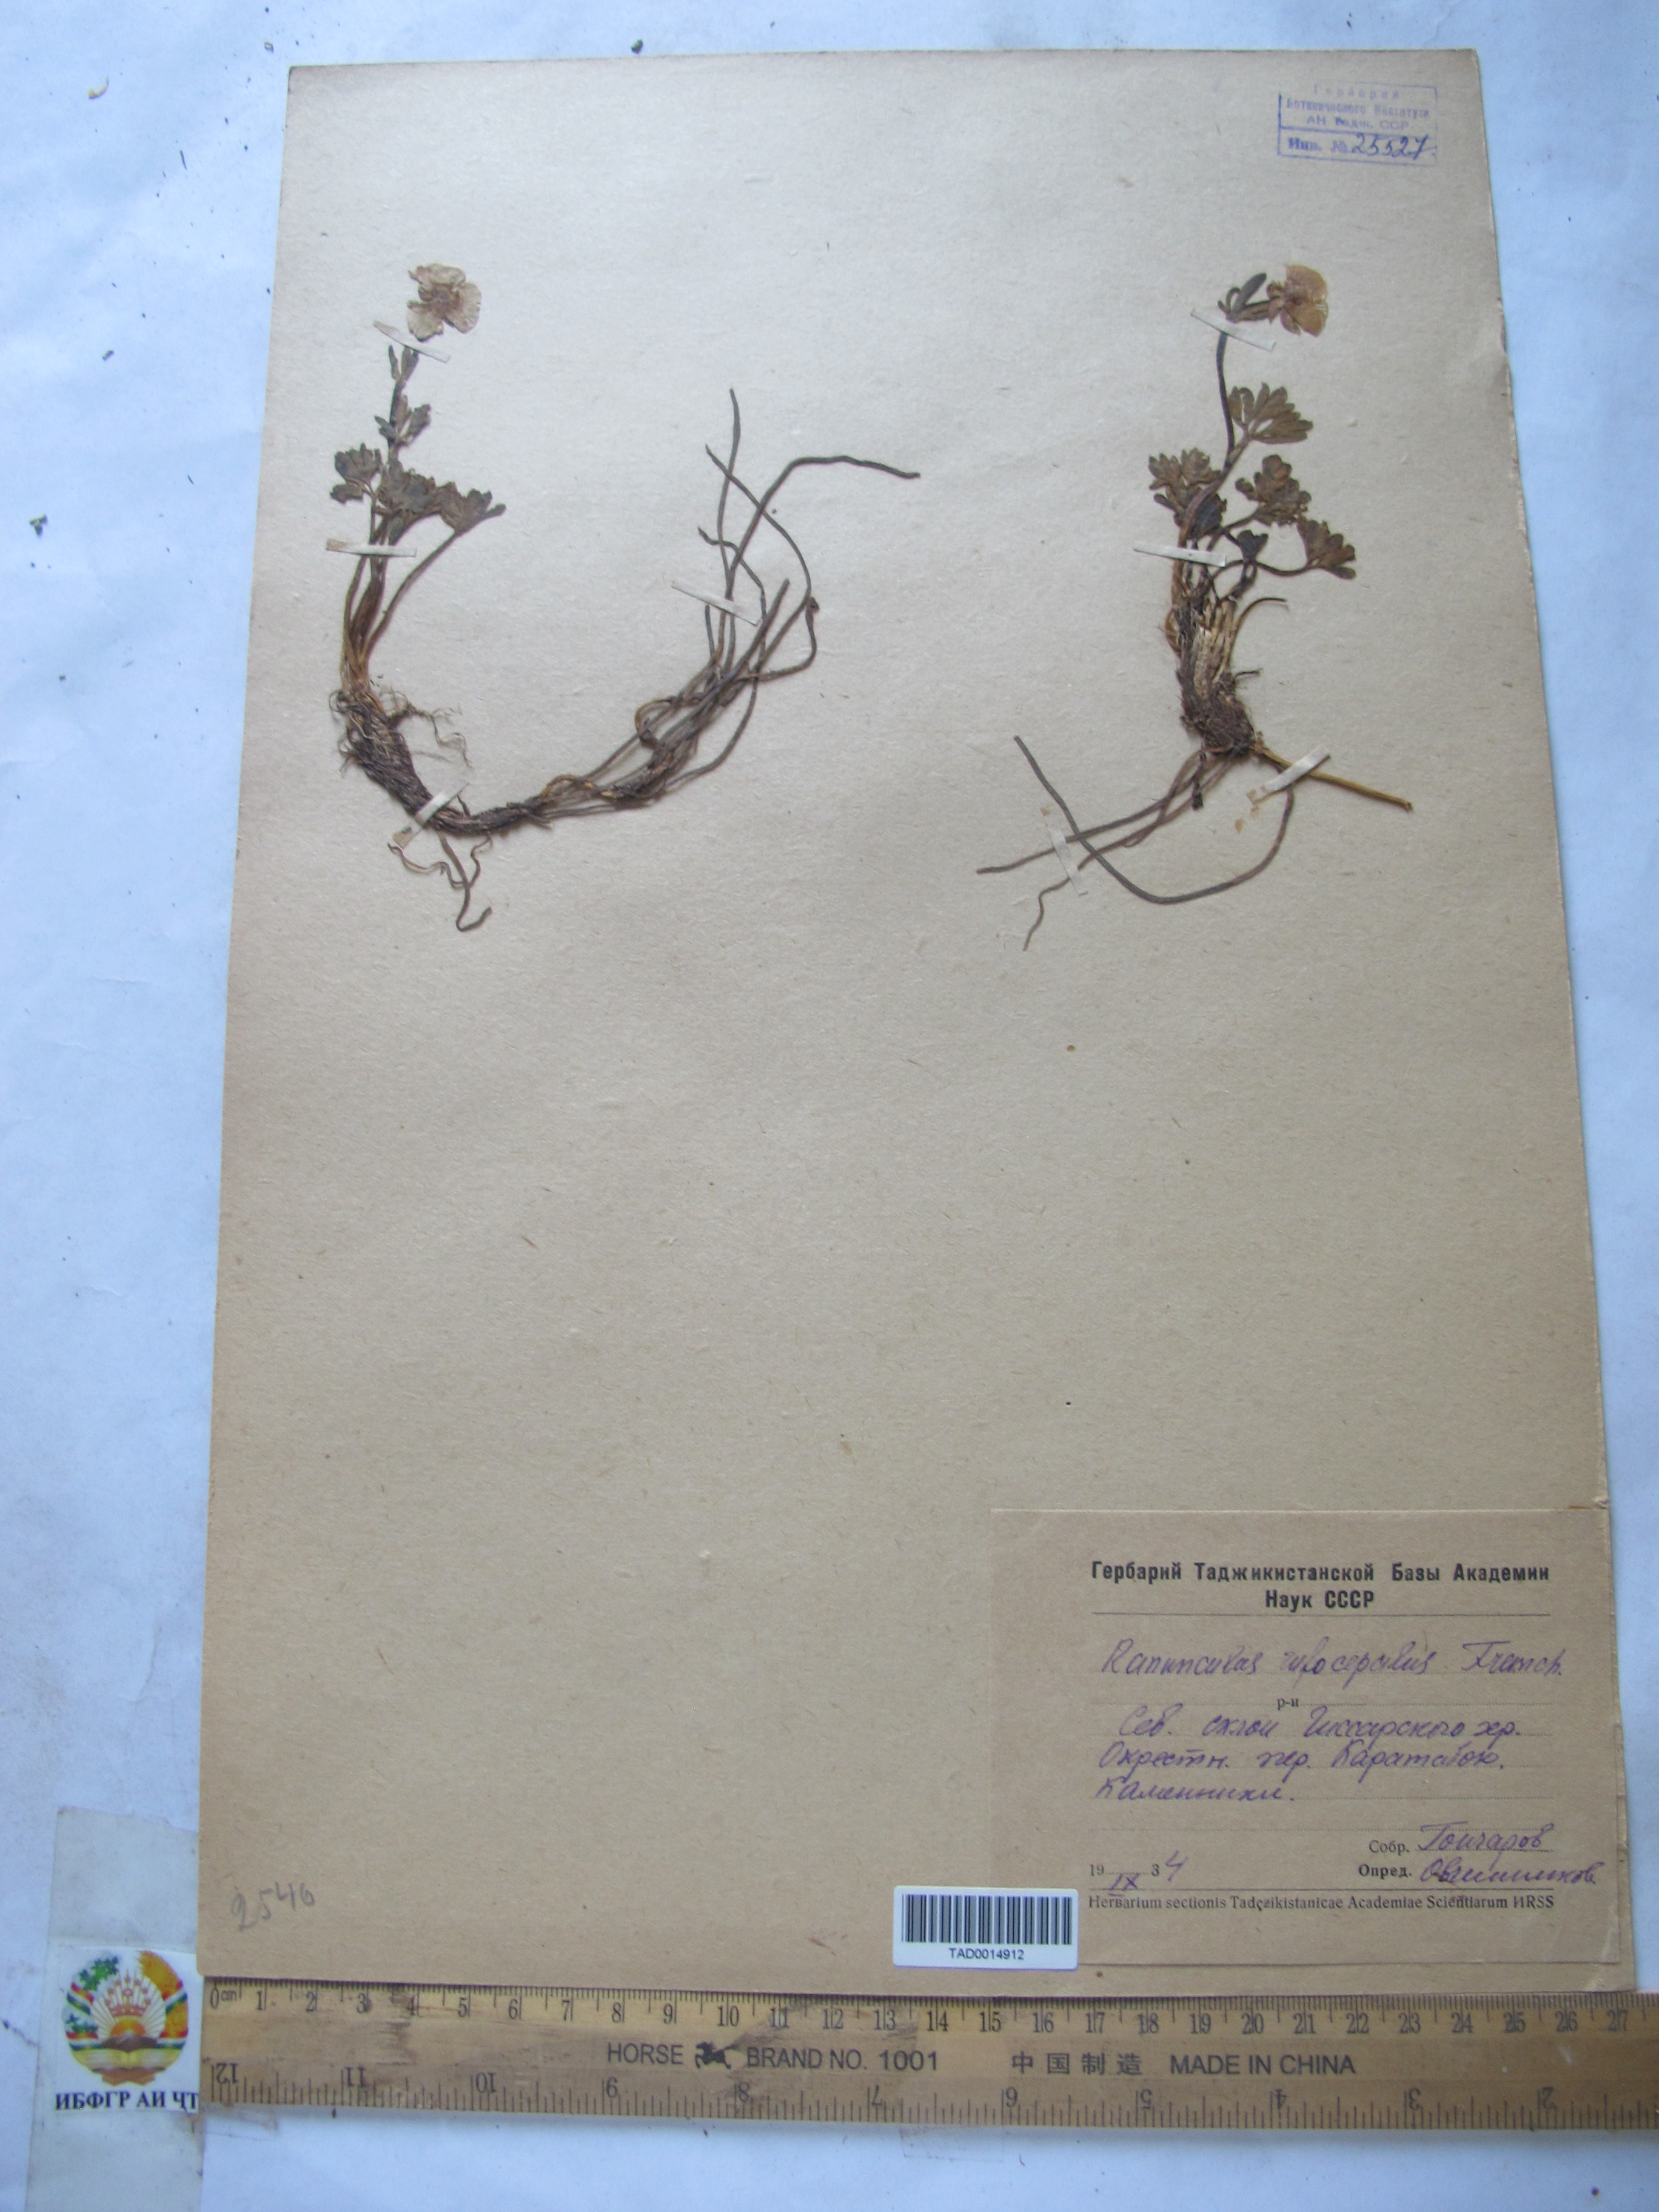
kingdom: Plantae
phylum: Tracheophyta
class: Magnoliopsida
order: Ranunculales
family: Ranunculaceae
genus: Ranunculus
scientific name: Ranunculus rufosepalus
